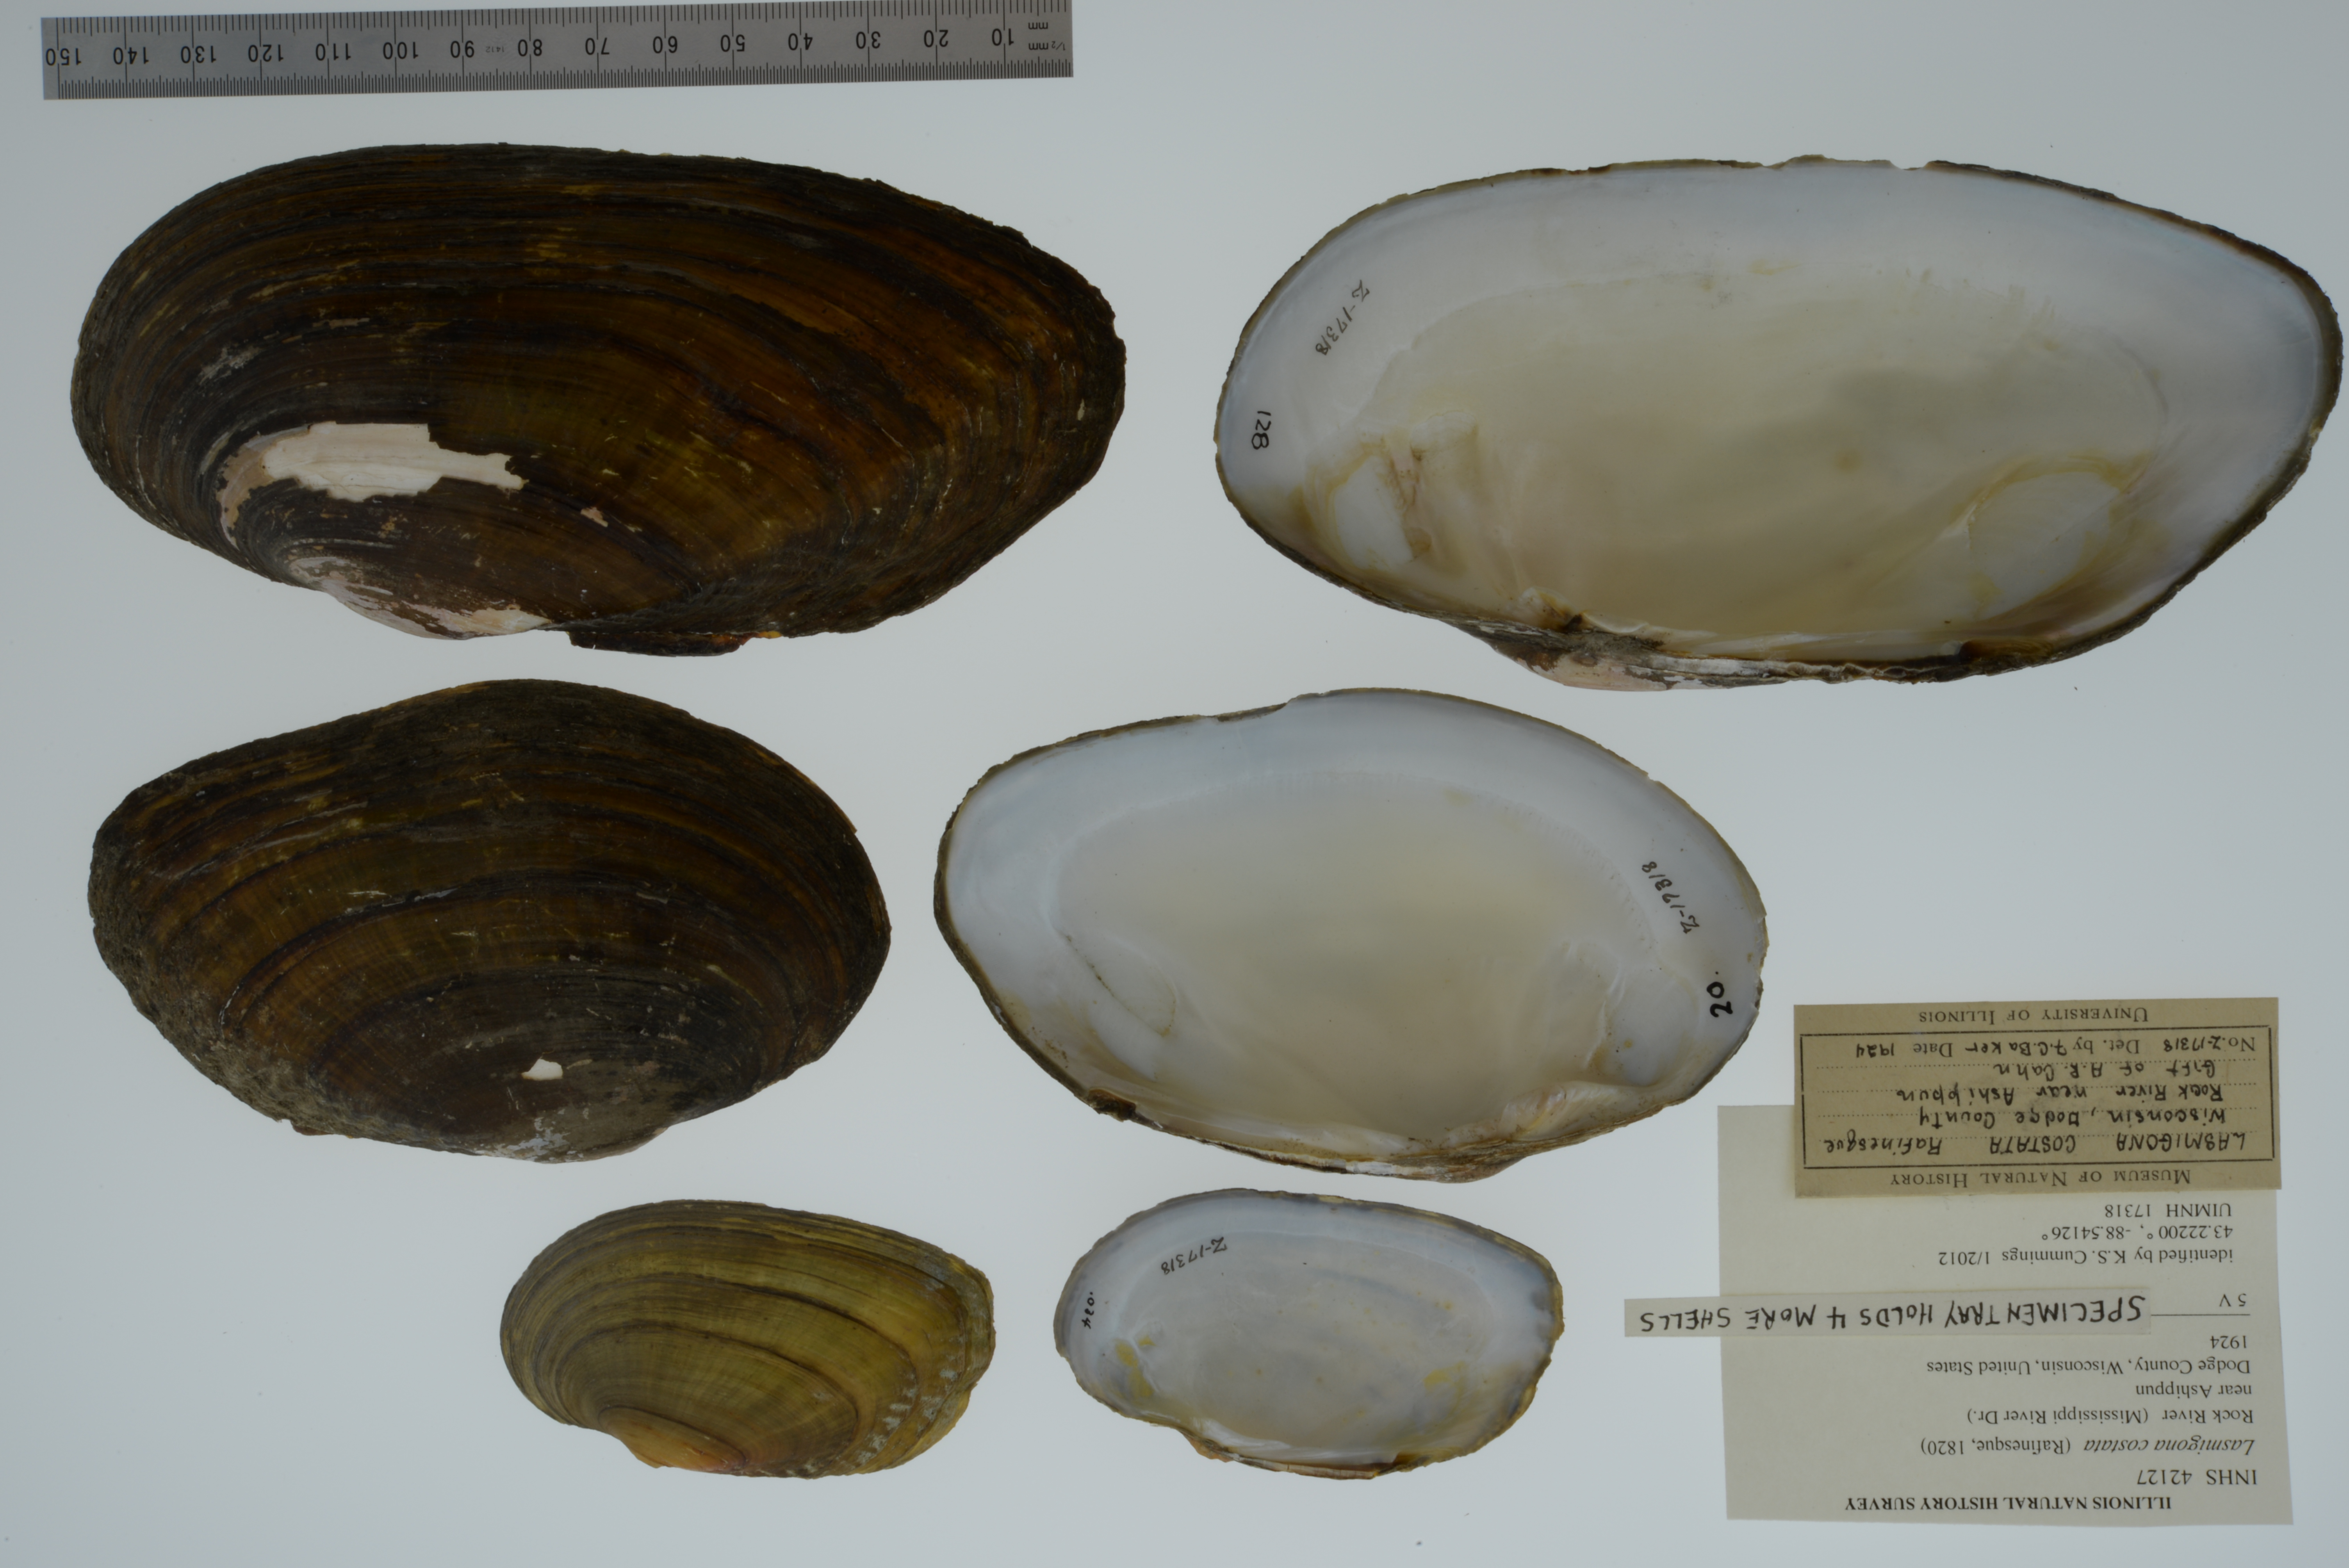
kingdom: Animalia
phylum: Mollusca
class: Bivalvia
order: Unionida
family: Unionidae
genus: Lasmigona
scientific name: Lasmigona costata
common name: Flutedshell
